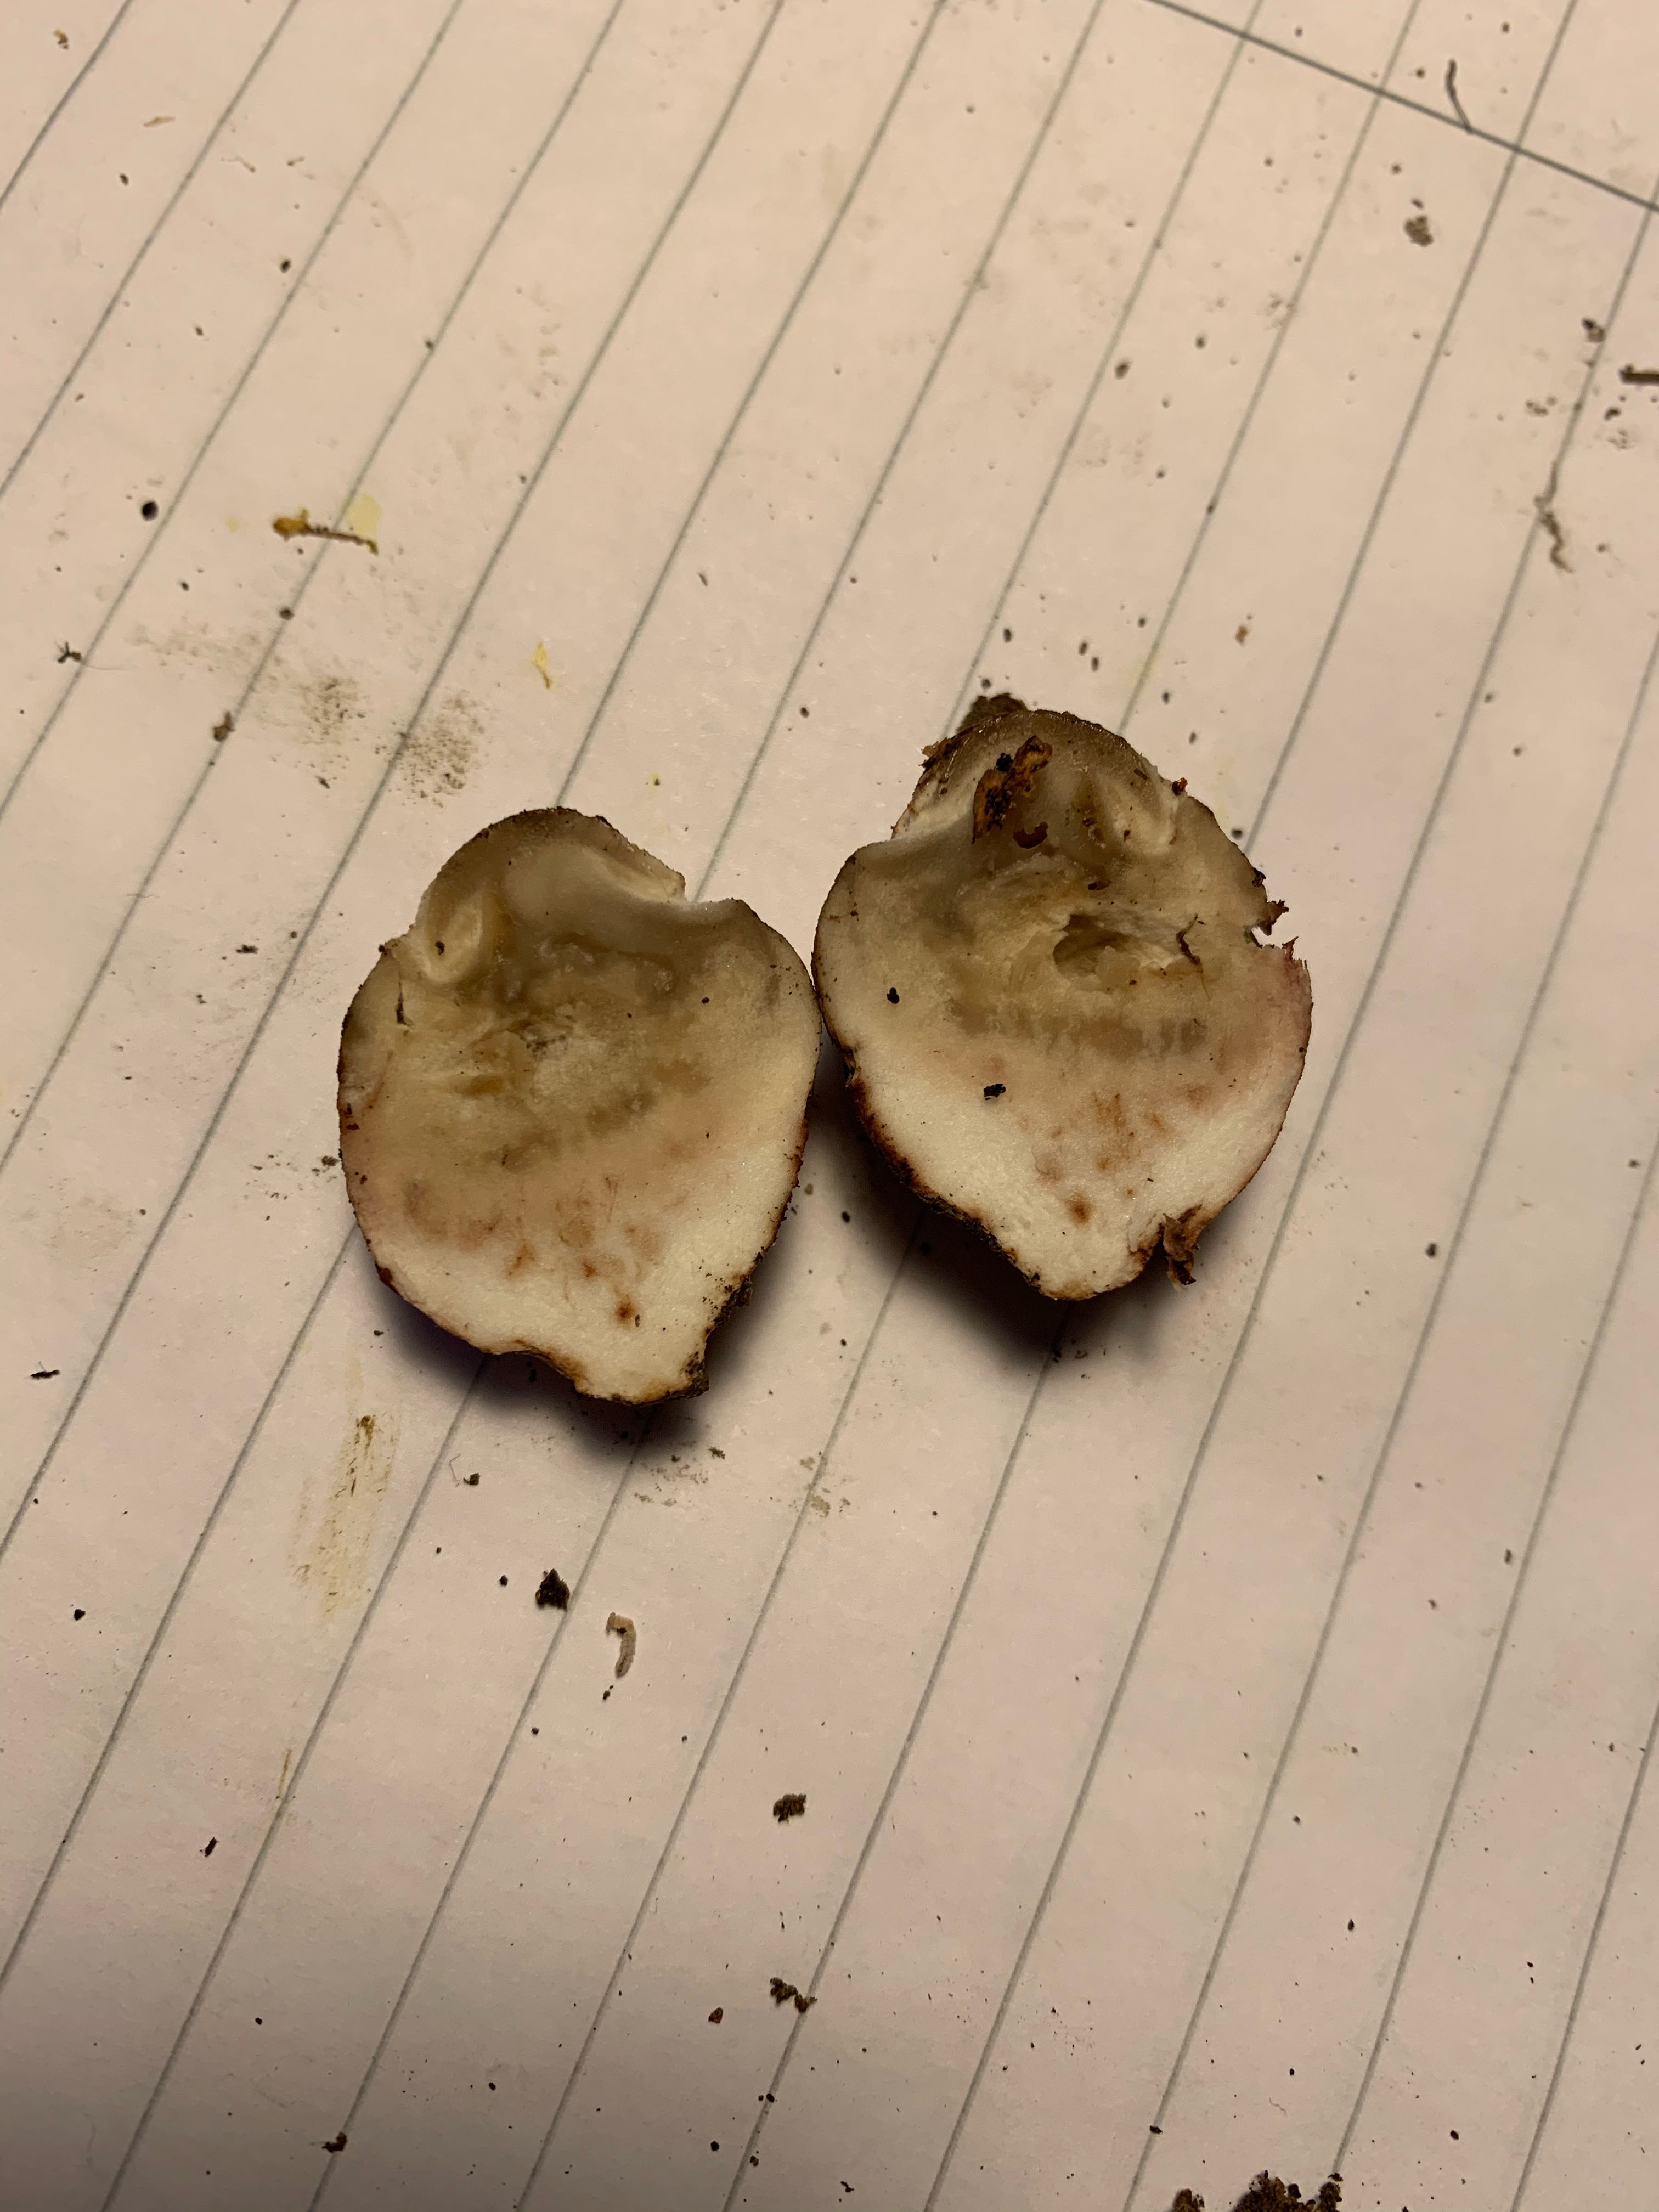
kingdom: Fungi
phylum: Basidiomycota
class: Agaricomycetes
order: Phallales
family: Phallaceae
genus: Phallus
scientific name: Phallus impudicus
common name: almindelig stinksvamp
